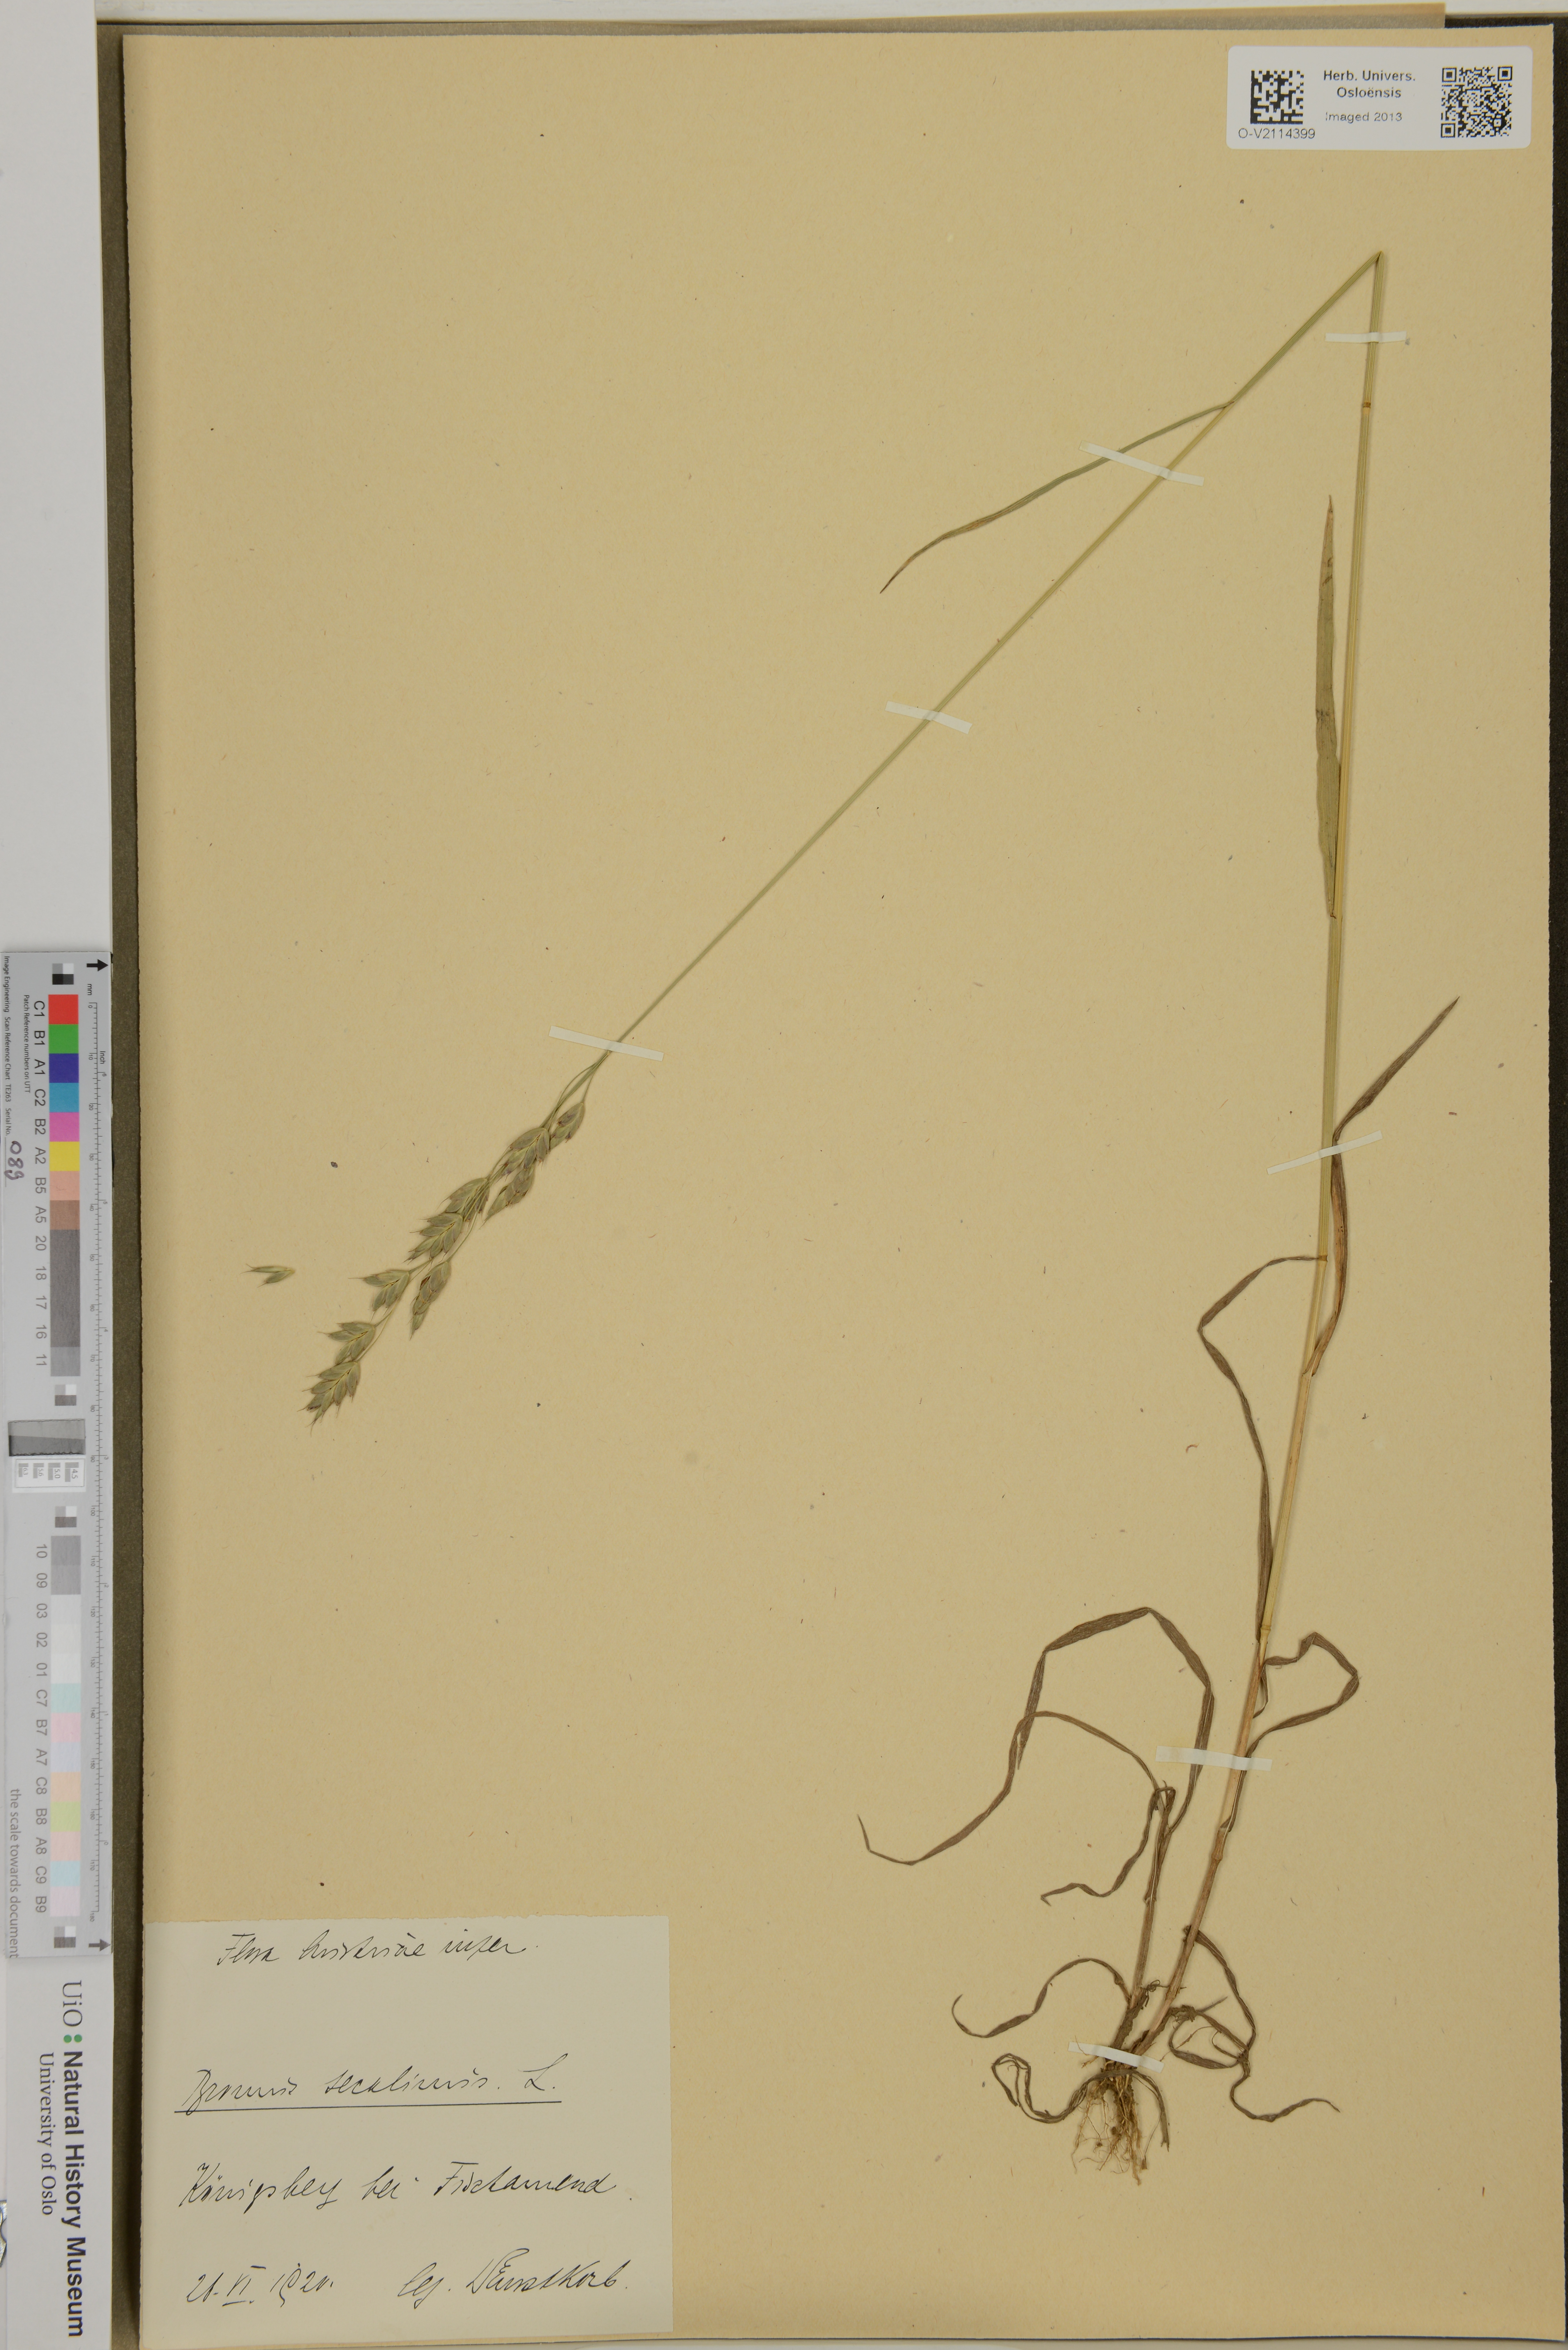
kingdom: Plantae
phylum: Tracheophyta
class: Liliopsida
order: Poales
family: Poaceae
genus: Bromus
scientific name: Bromus secalinus
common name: Rye brome
